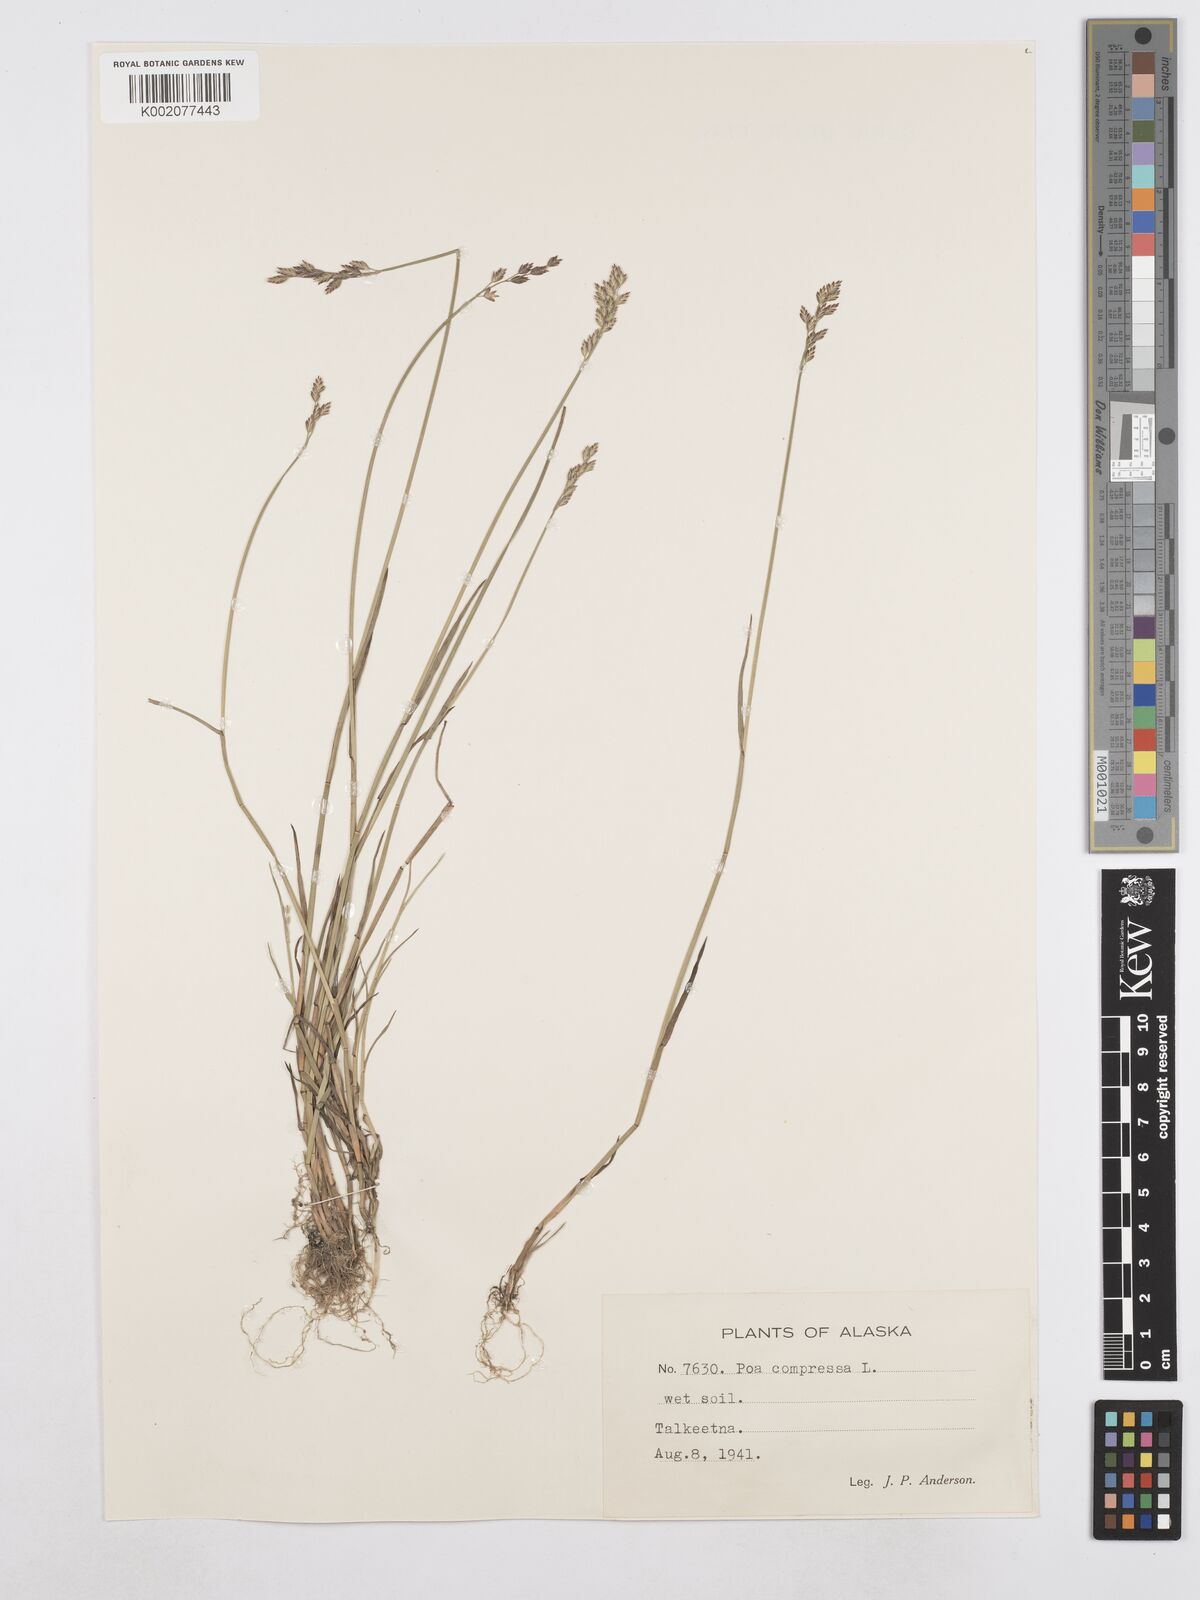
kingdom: Plantae
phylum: Tracheophyta
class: Liliopsida
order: Poales
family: Poaceae
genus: Poa
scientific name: Poa compressa
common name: Canada bluegrass
